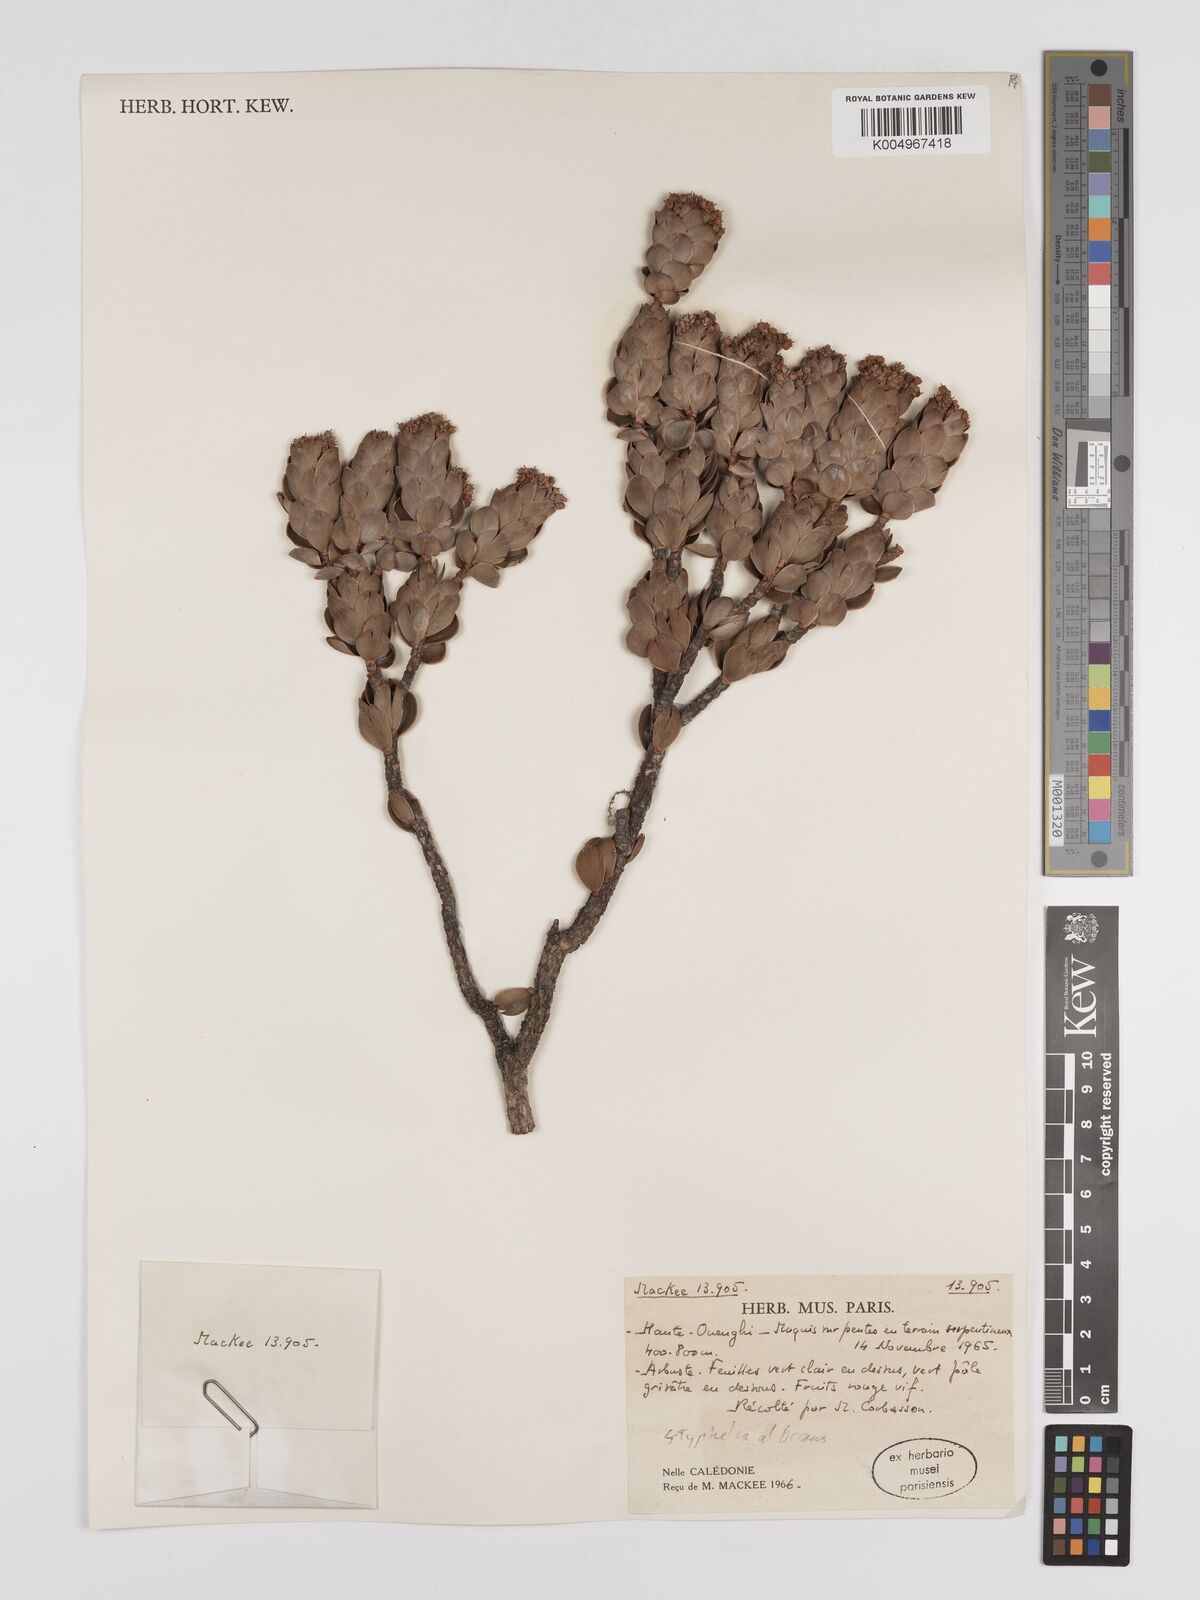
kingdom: Plantae
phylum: Tracheophyta
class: Magnoliopsida
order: Ericales
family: Ericaceae
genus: Cyathopsis
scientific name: Cyathopsis albicans
